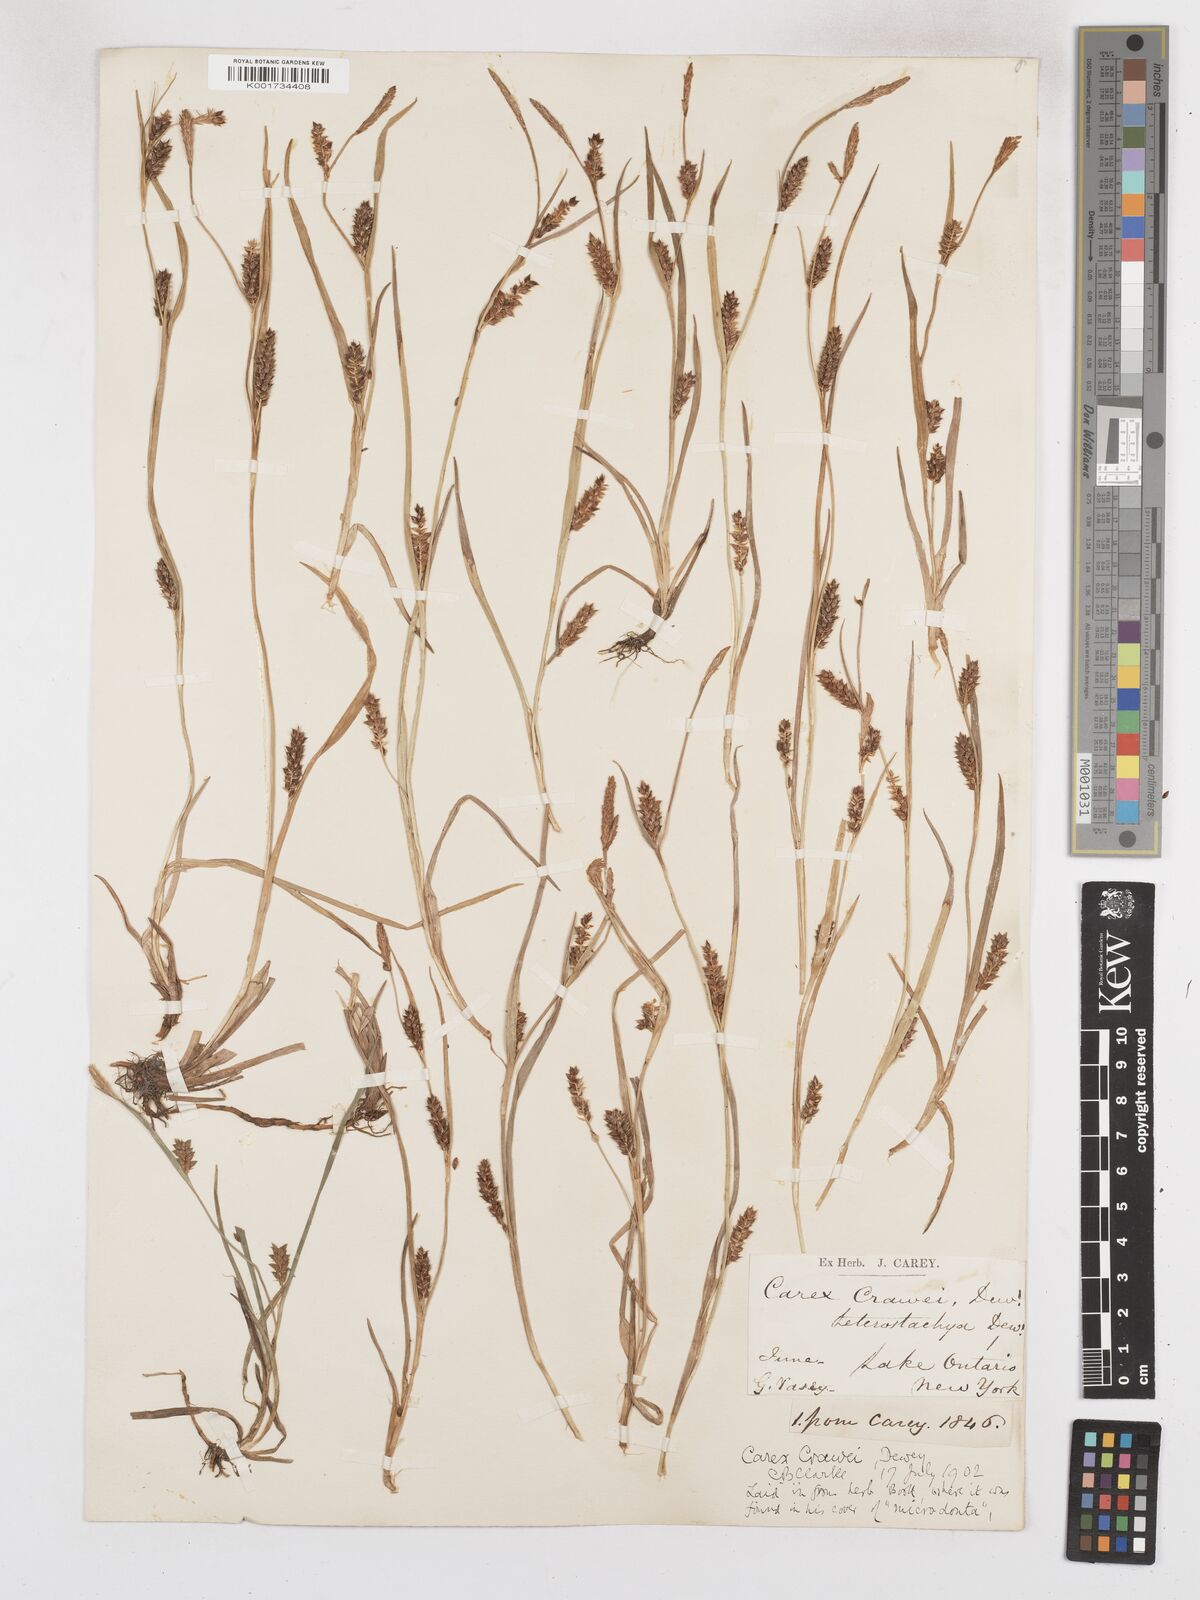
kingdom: Plantae
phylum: Tracheophyta
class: Liliopsida
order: Poales
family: Cyperaceae
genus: Carex
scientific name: Carex crawei
